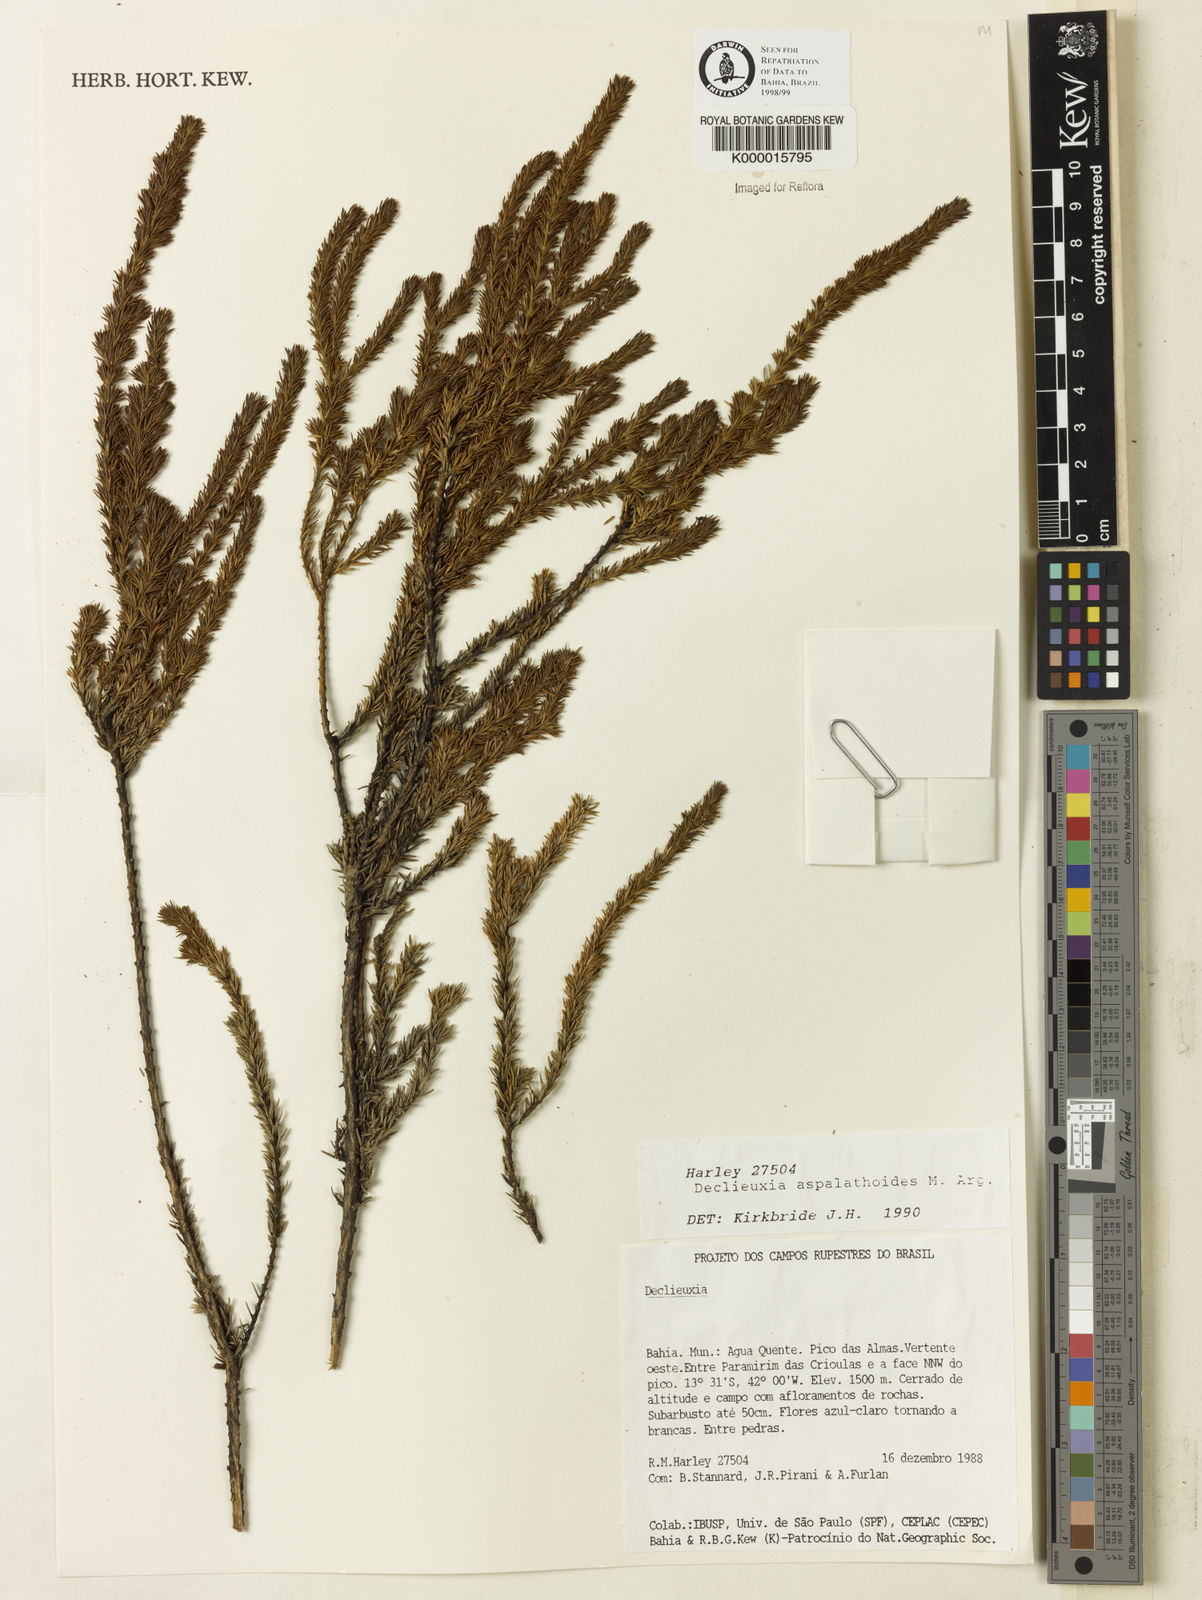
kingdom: Plantae
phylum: Tracheophyta
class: Magnoliopsida
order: Gentianales
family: Rubiaceae
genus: Declieuxia
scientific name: Declieuxia aspalathoides
